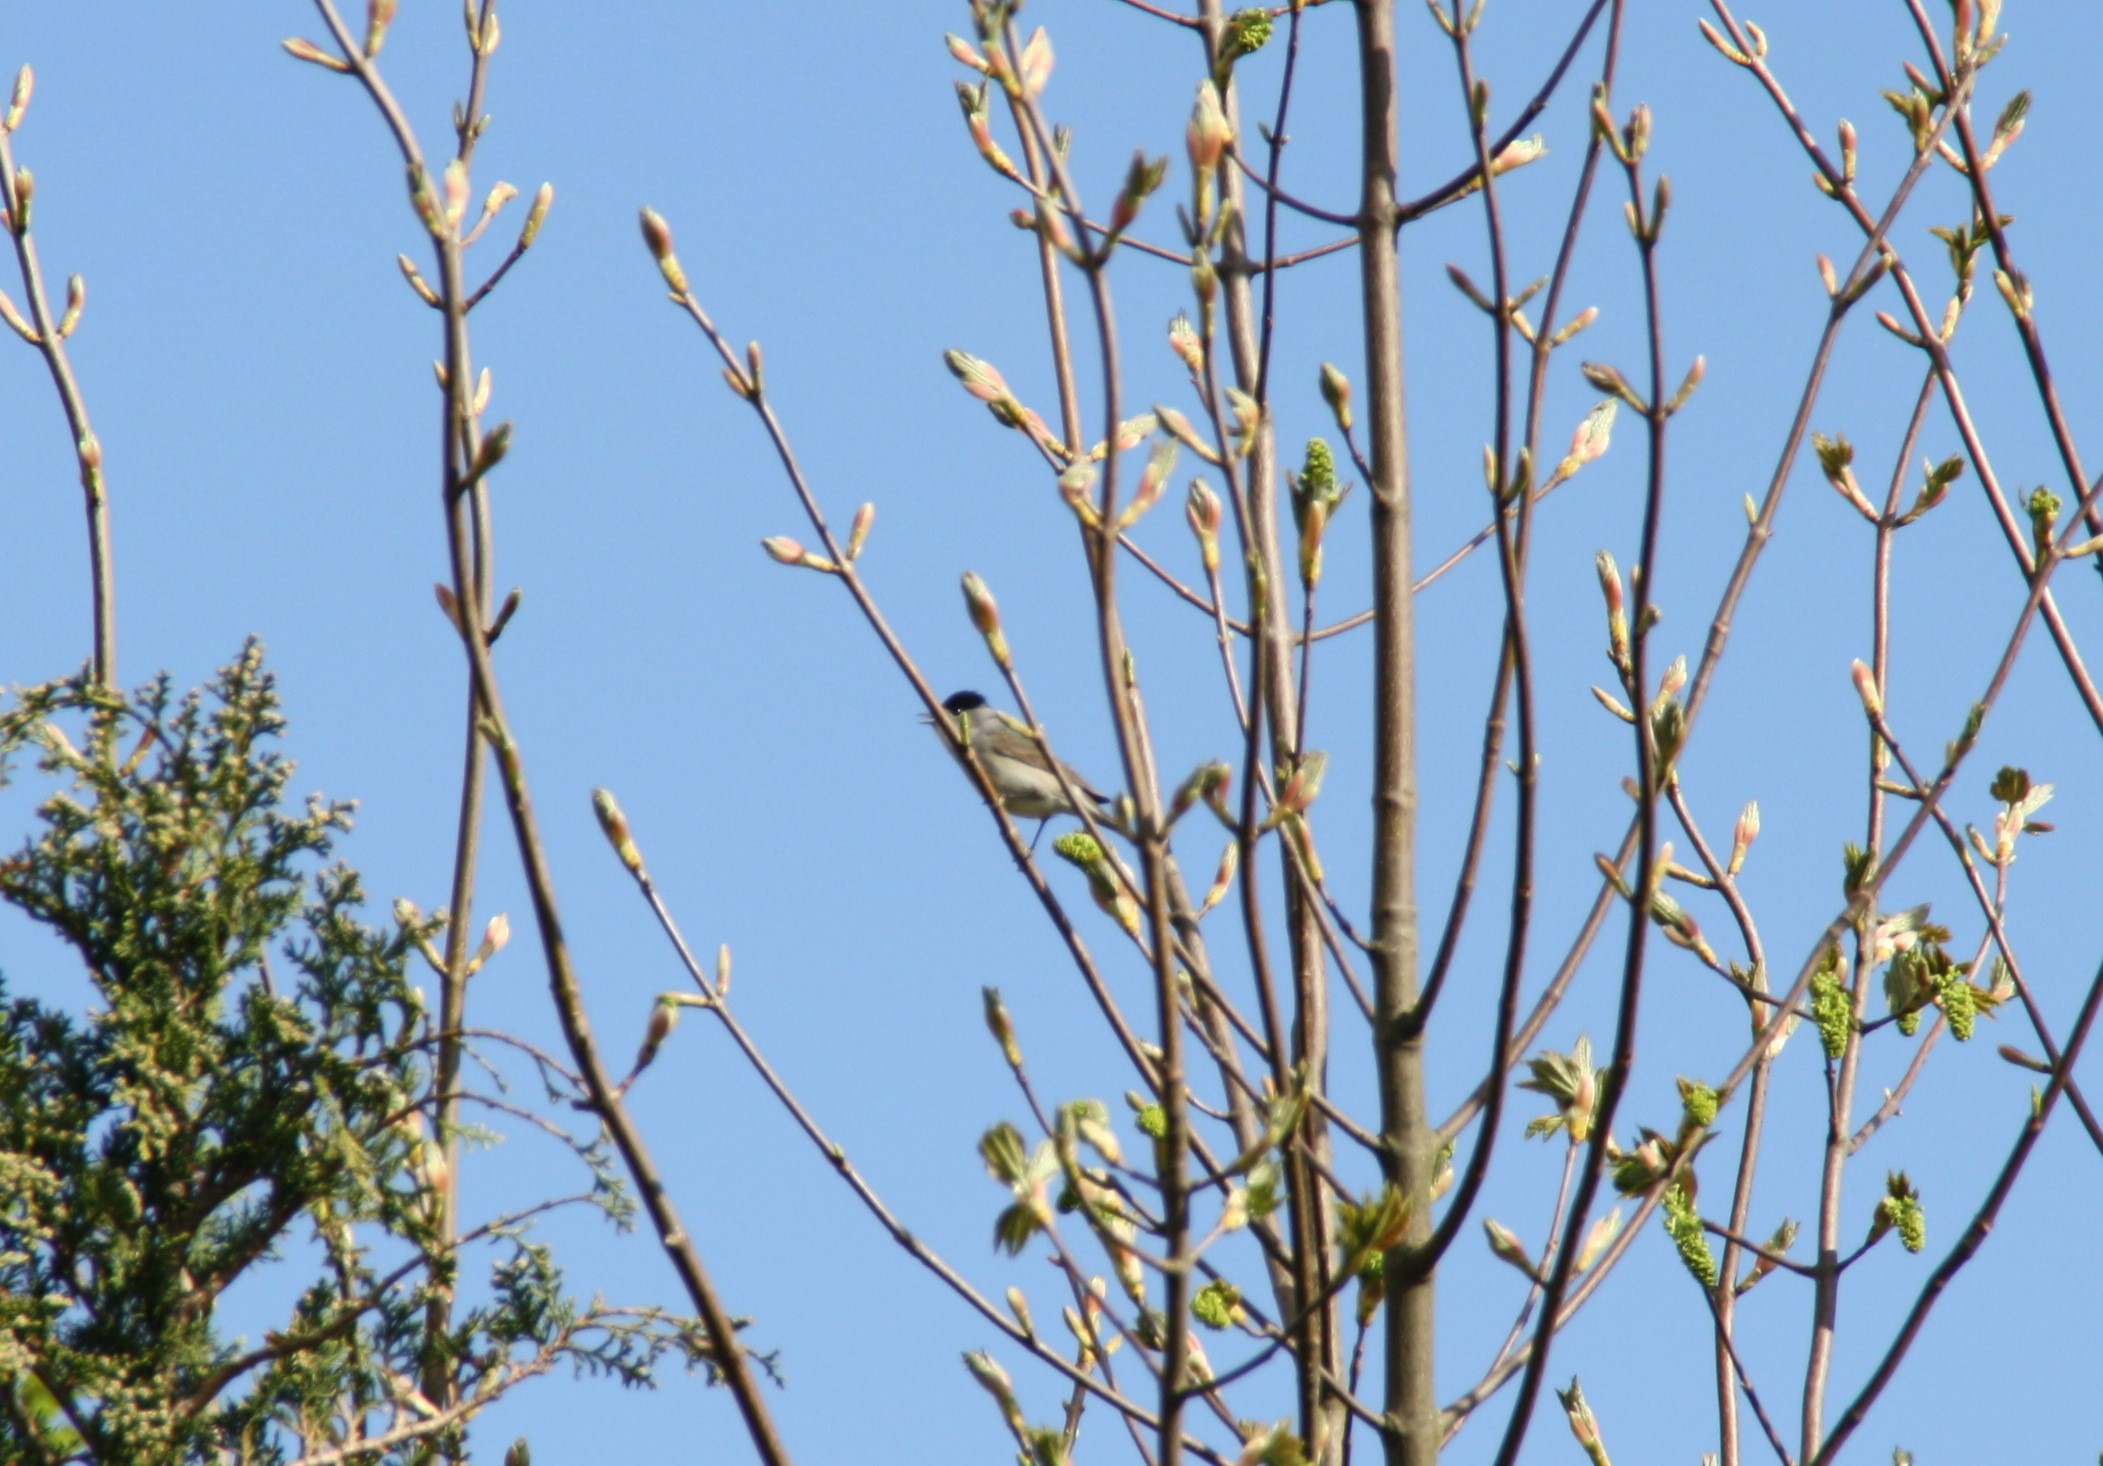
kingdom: Animalia
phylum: Chordata
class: Aves
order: Passeriformes
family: Sylviidae
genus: Sylvia
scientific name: Sylvia atricapilla
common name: Munk
